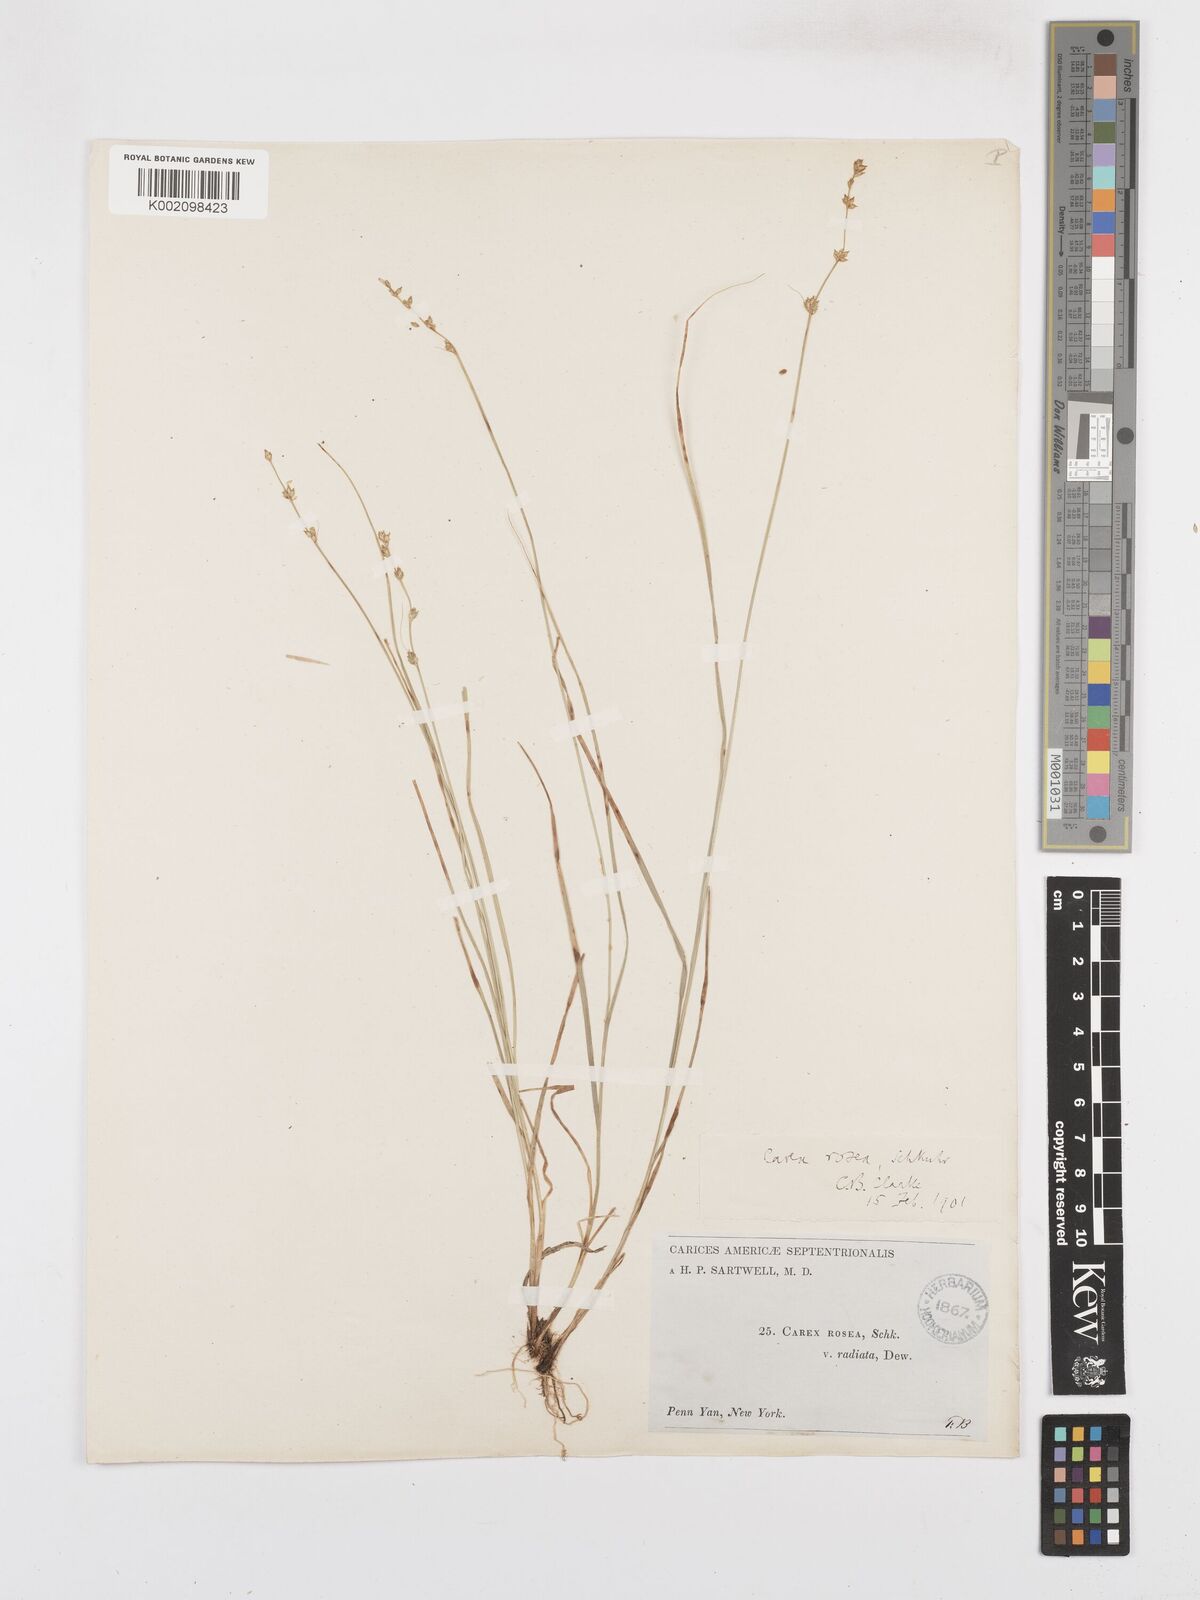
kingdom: Plantae
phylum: Tracheophyta
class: Liliopsida
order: Poales
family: Cyperaceae
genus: Carex
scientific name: Carex
